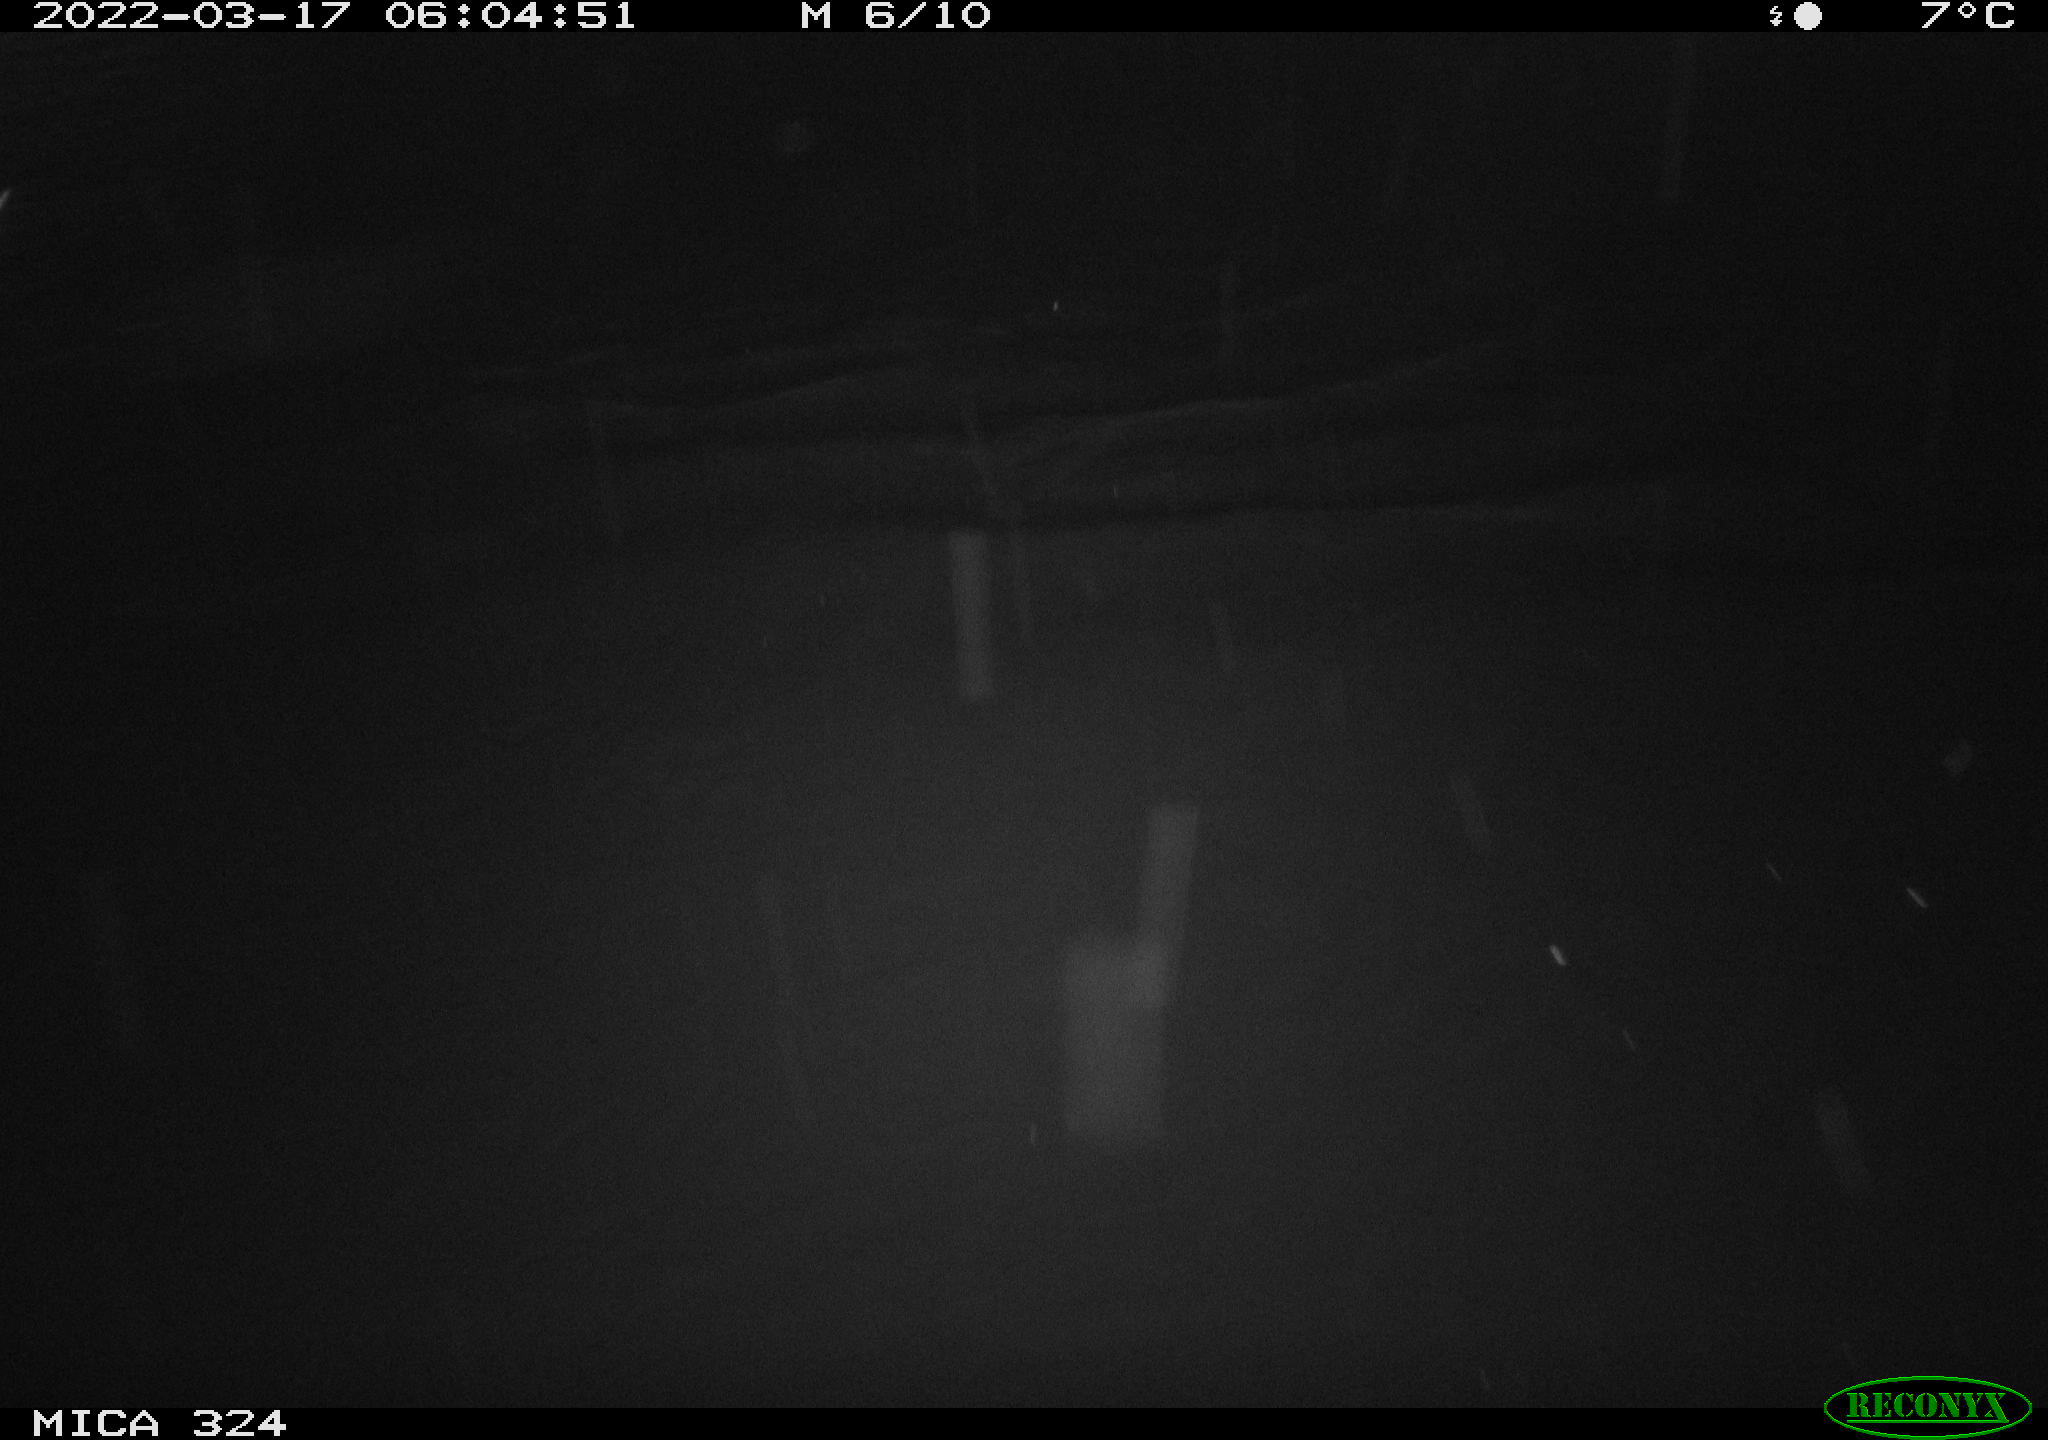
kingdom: Animalia
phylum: Chordata
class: Aves
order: Anseriformes
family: Anatidae
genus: Anas
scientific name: Anas platyrhynchos
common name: Mallard
